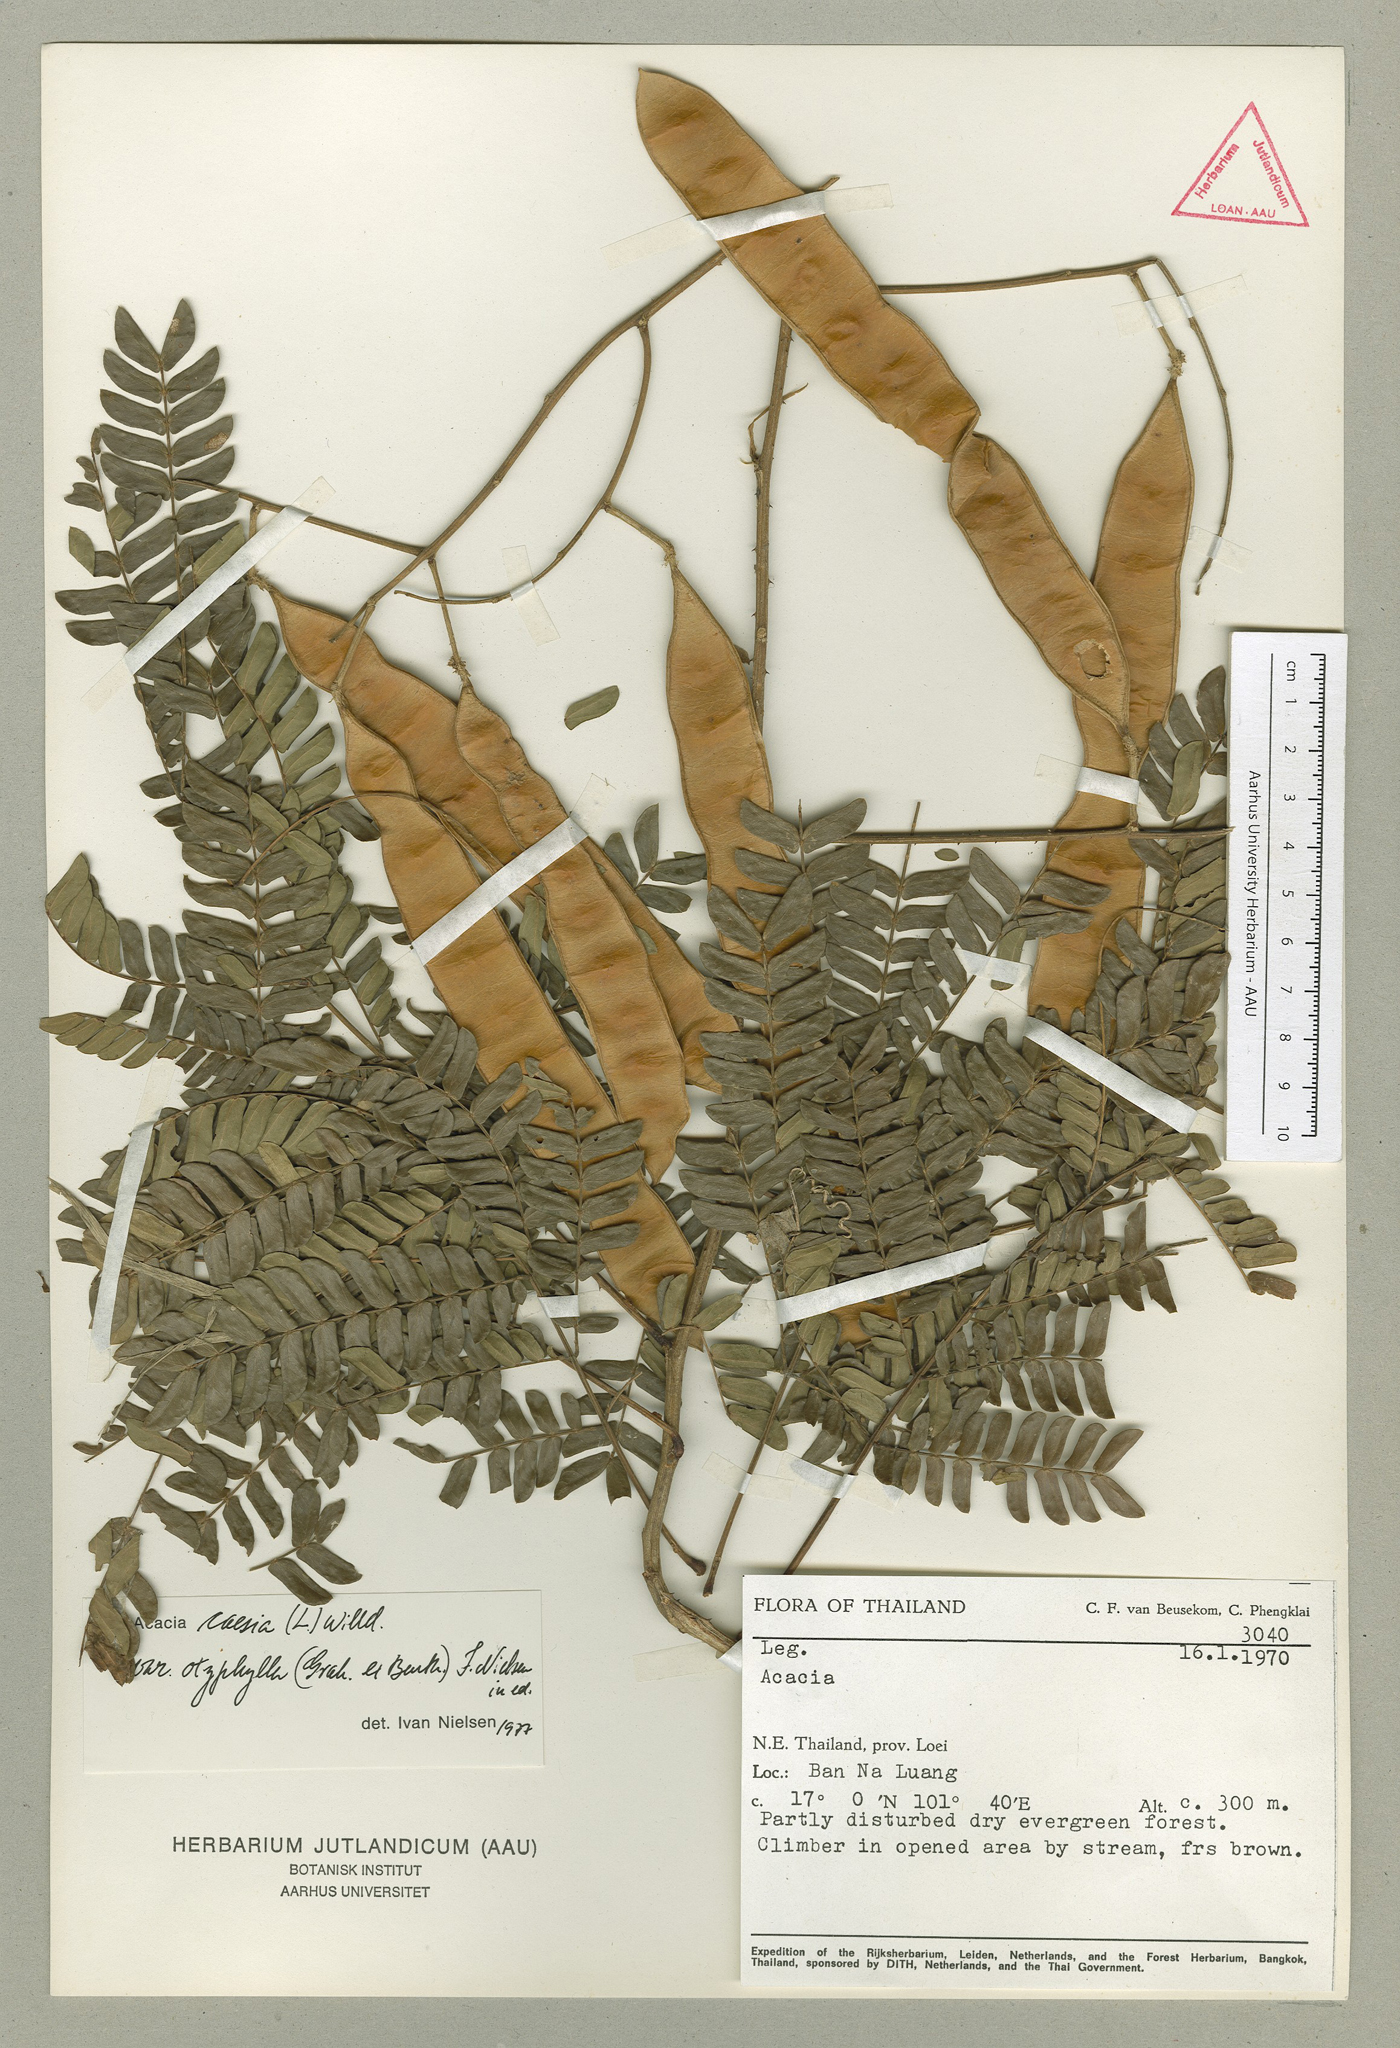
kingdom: Plantae
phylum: Tracheophyta
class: Magnoliopsida
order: Fabales
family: Fabaceae
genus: Senegalia
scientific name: Senegalia caesia
